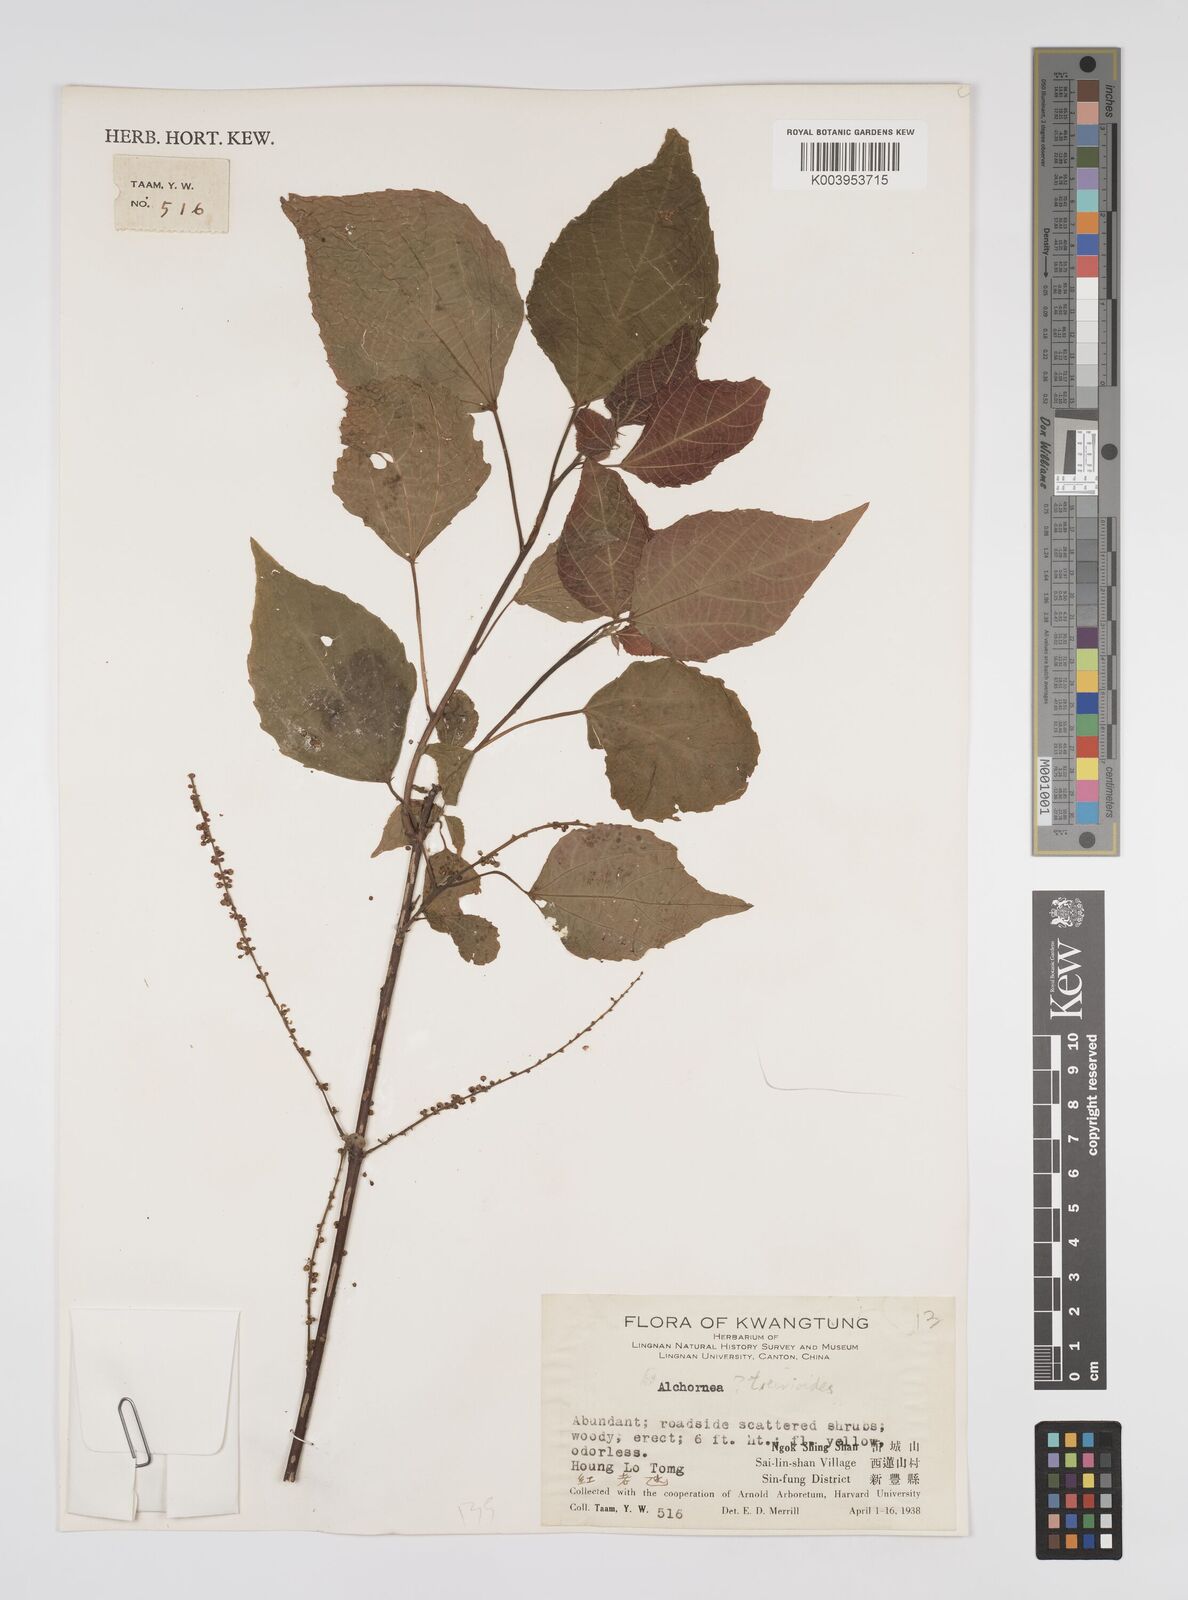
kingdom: Plantae
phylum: Tracheophyta
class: Magnoliopsida
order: Malpighiales
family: Euphorbiaceae
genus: Alchornea
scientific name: Alchornea trewioides
